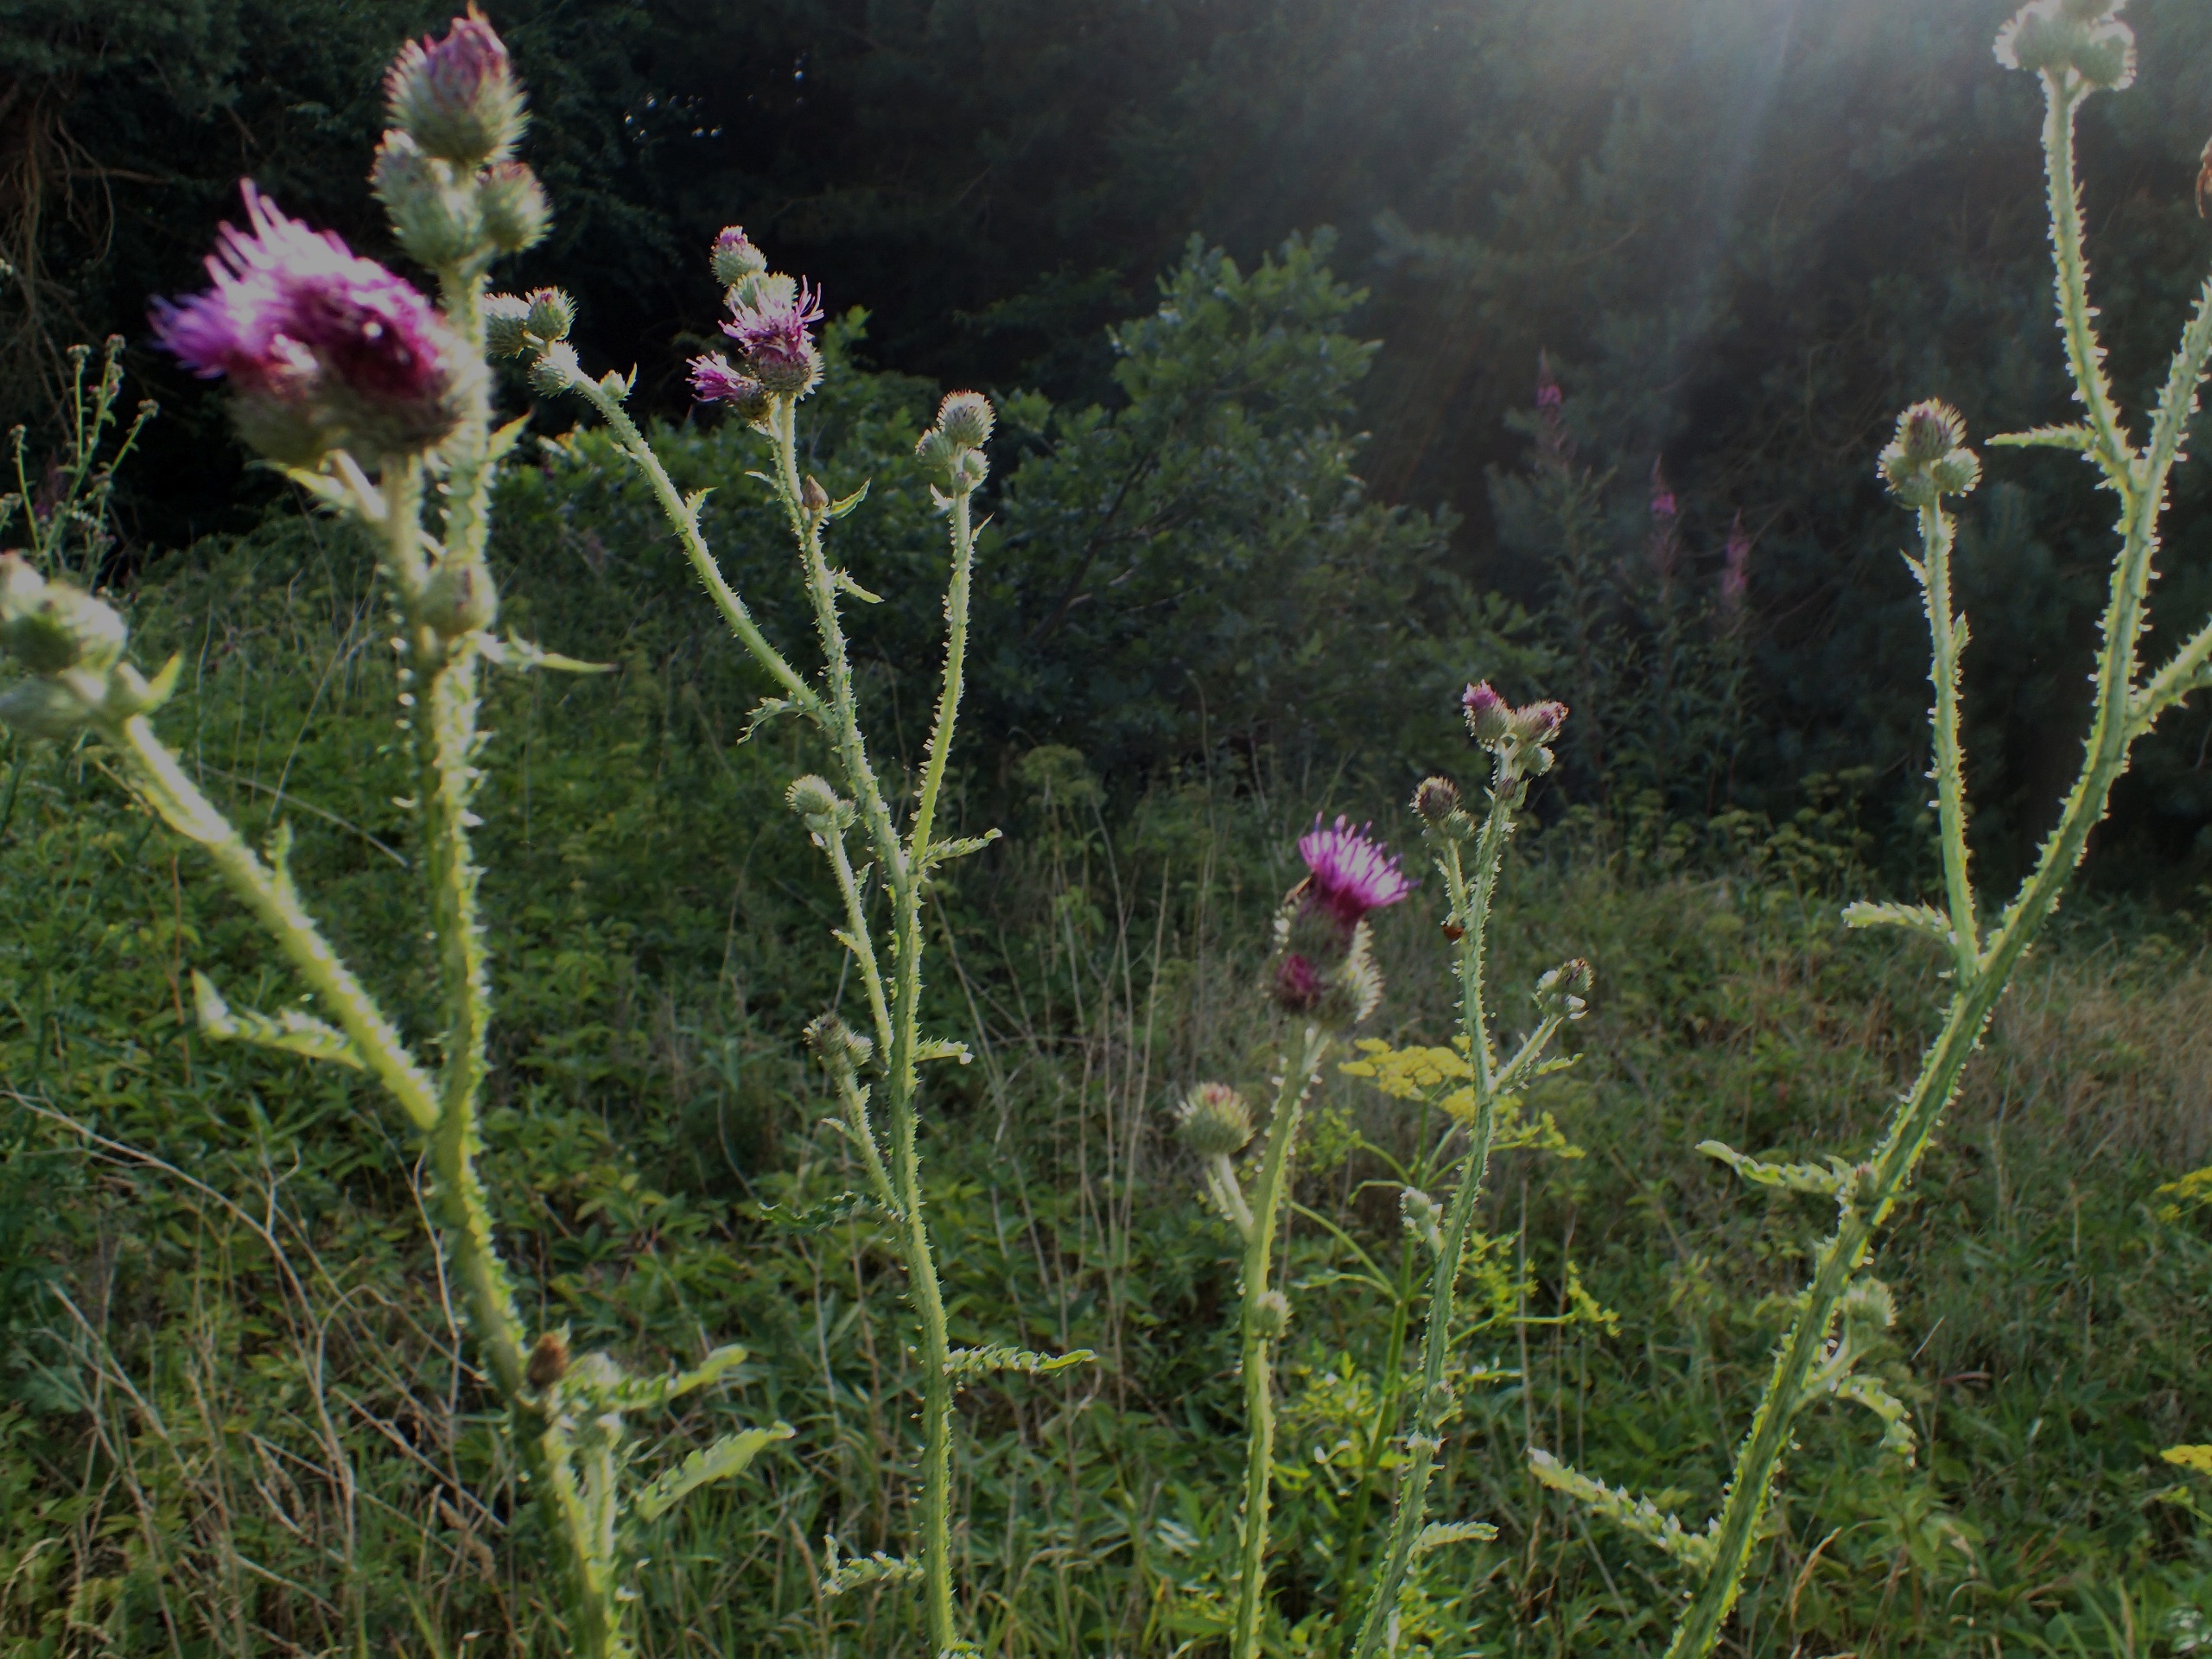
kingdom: Plantae
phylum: Tracheophyta
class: Magnoliopsida
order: Asterales
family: Asteraceae
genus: Carduus
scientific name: Carduus crispus
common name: Kruset tidsel
